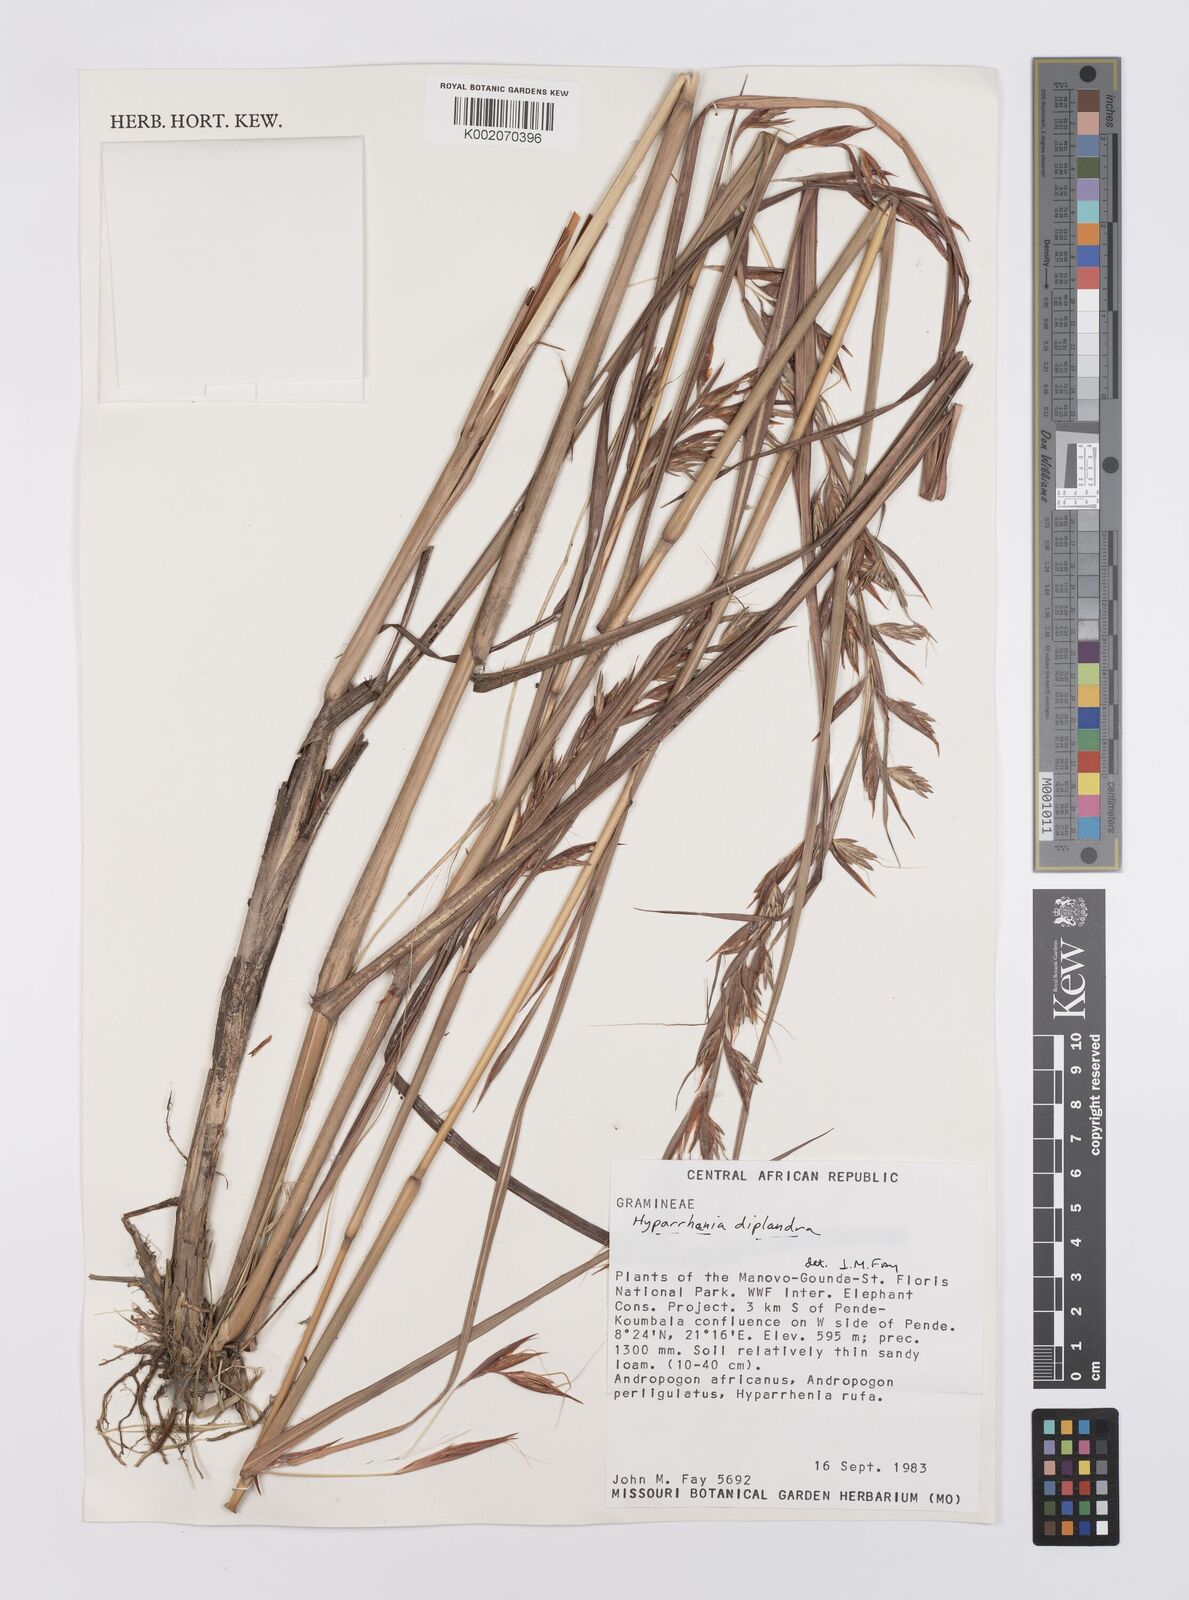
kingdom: Plantae
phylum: Tracheophyta
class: Liliopsida
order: Poales
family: Poaceae
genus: Hyparrhenia
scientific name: Hyparrhenia diplandra
